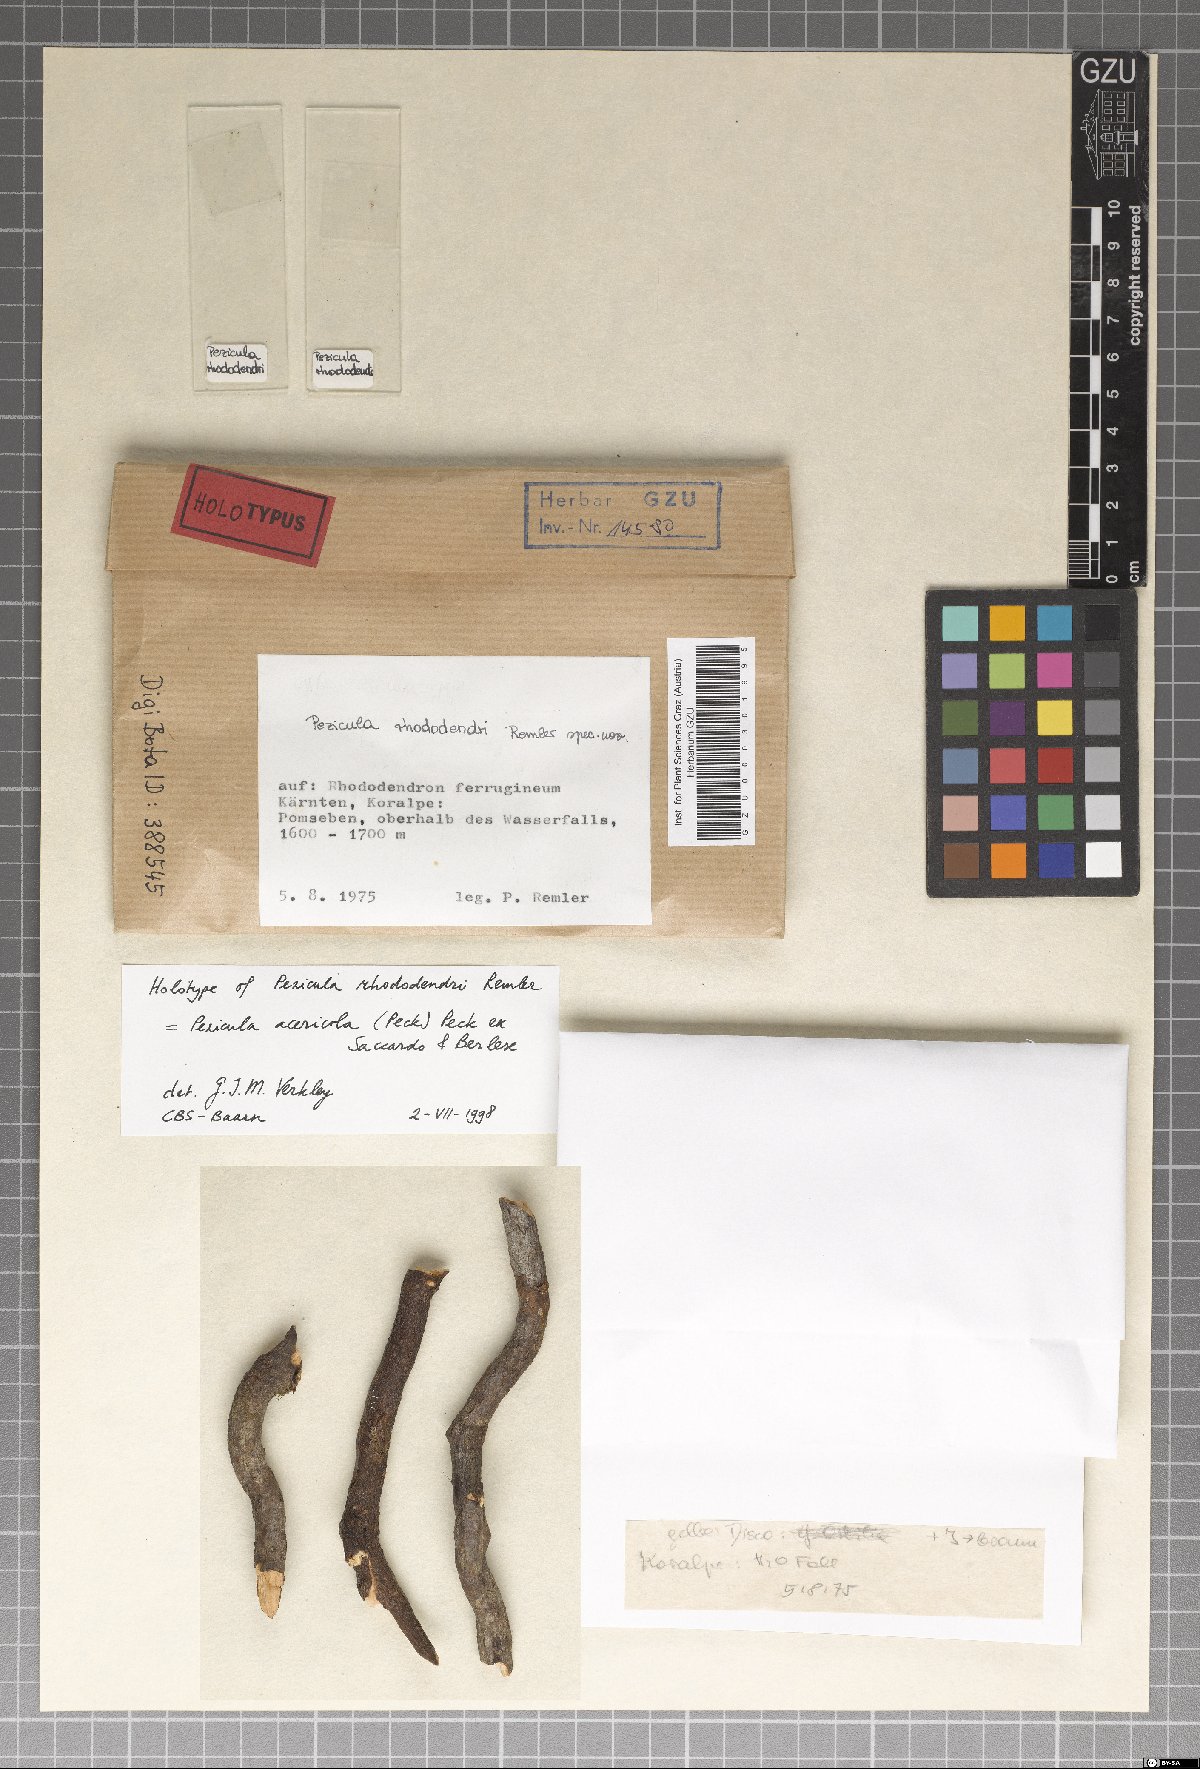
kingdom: Fungi
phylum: Ascomycota
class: Leotiomycetes
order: Helotiales
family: Dermateaceae
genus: Pezicula
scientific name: Pezicula rhododendri
